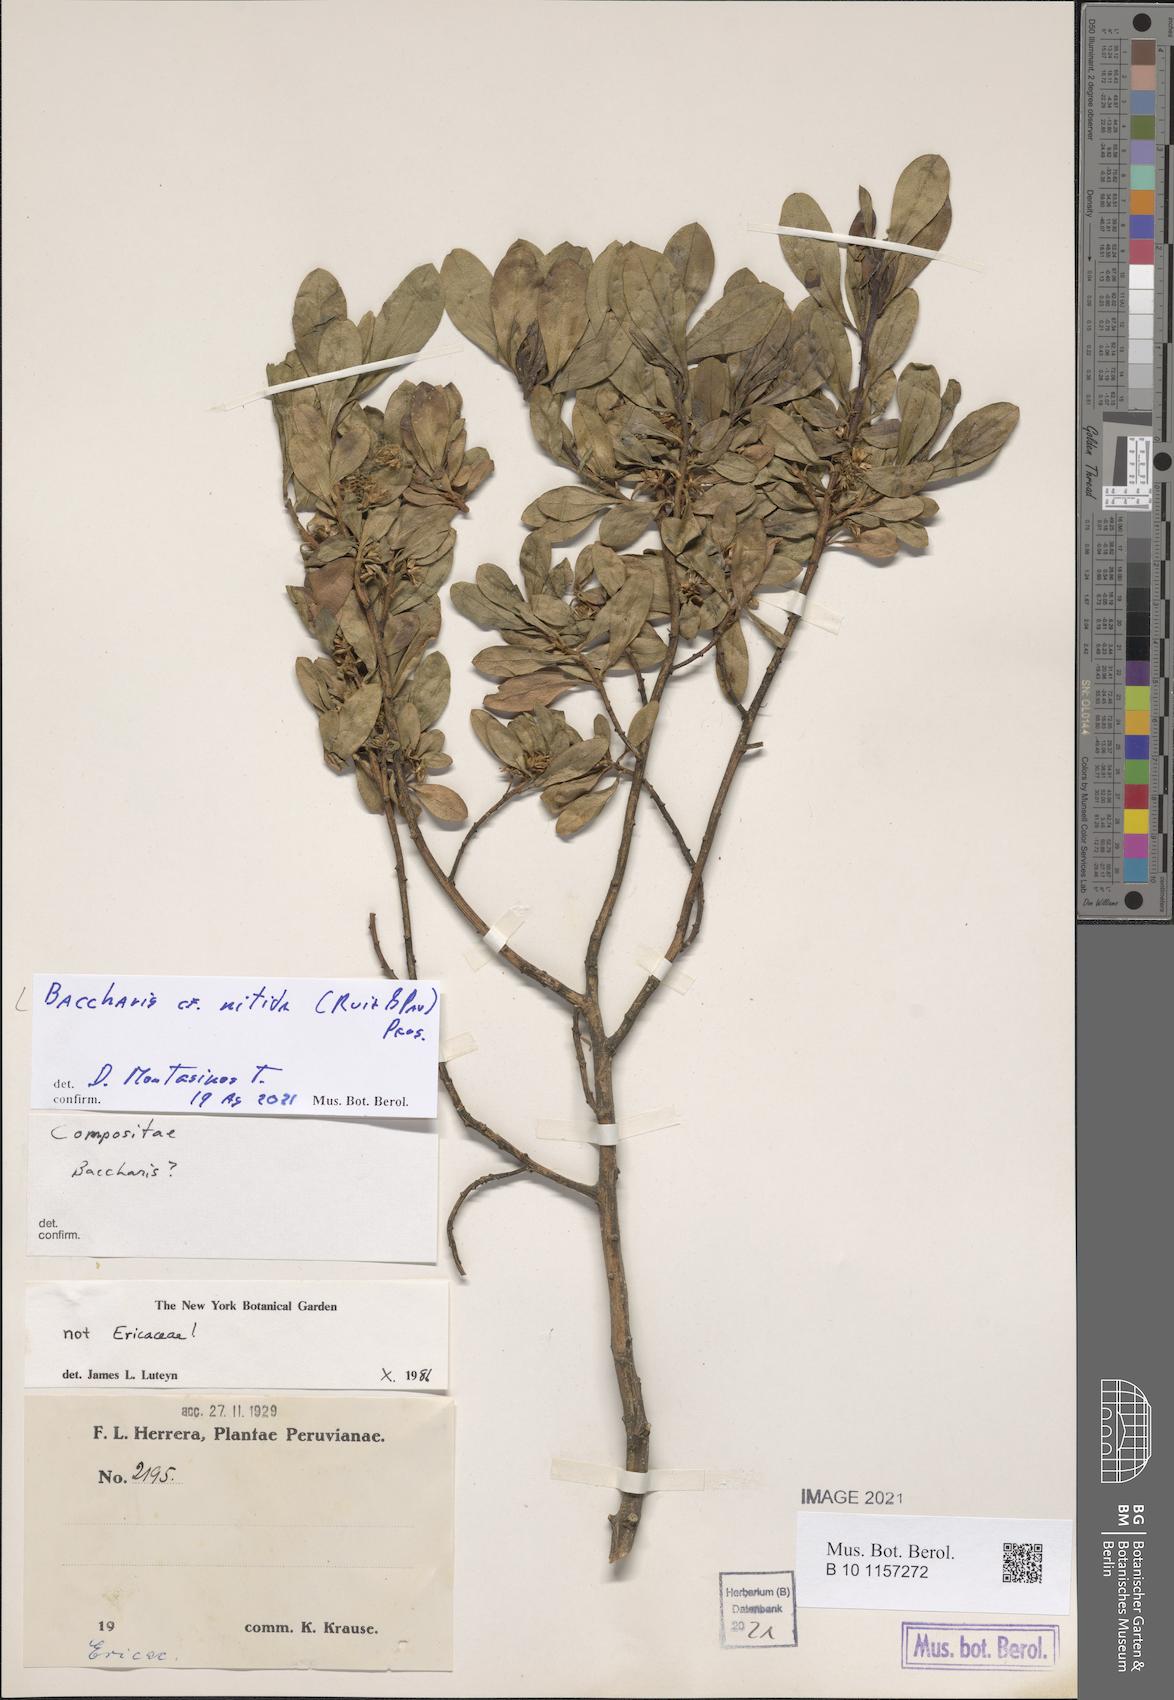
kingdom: Plantae
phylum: Tracheophyta
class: Magnoliopsida
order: Asterales
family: Asteraceae
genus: Baccharis
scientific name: Baccharis nitida
